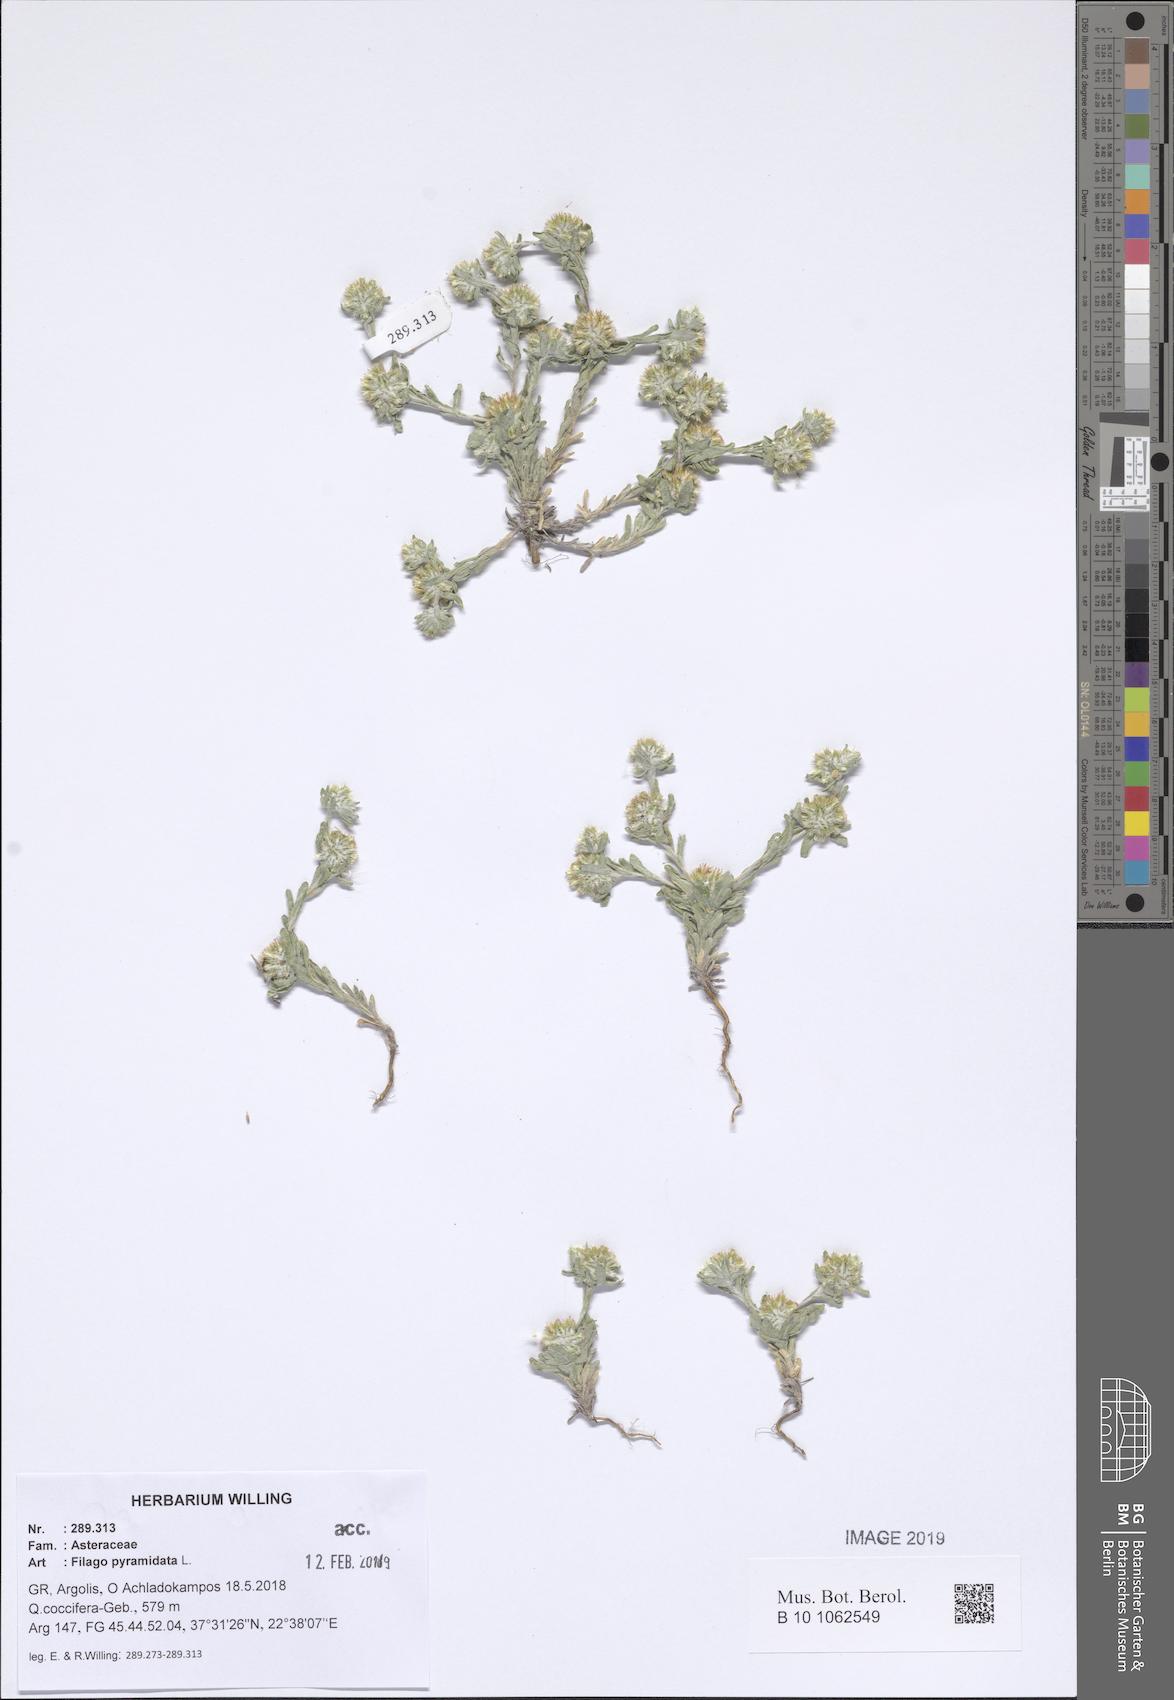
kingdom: Plantae
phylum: Tracheophyta
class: Magnoliopsida
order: Asterales
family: Asteraceae
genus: Filago
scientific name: Filago pyramidata
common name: Broad-leaved cudweed
